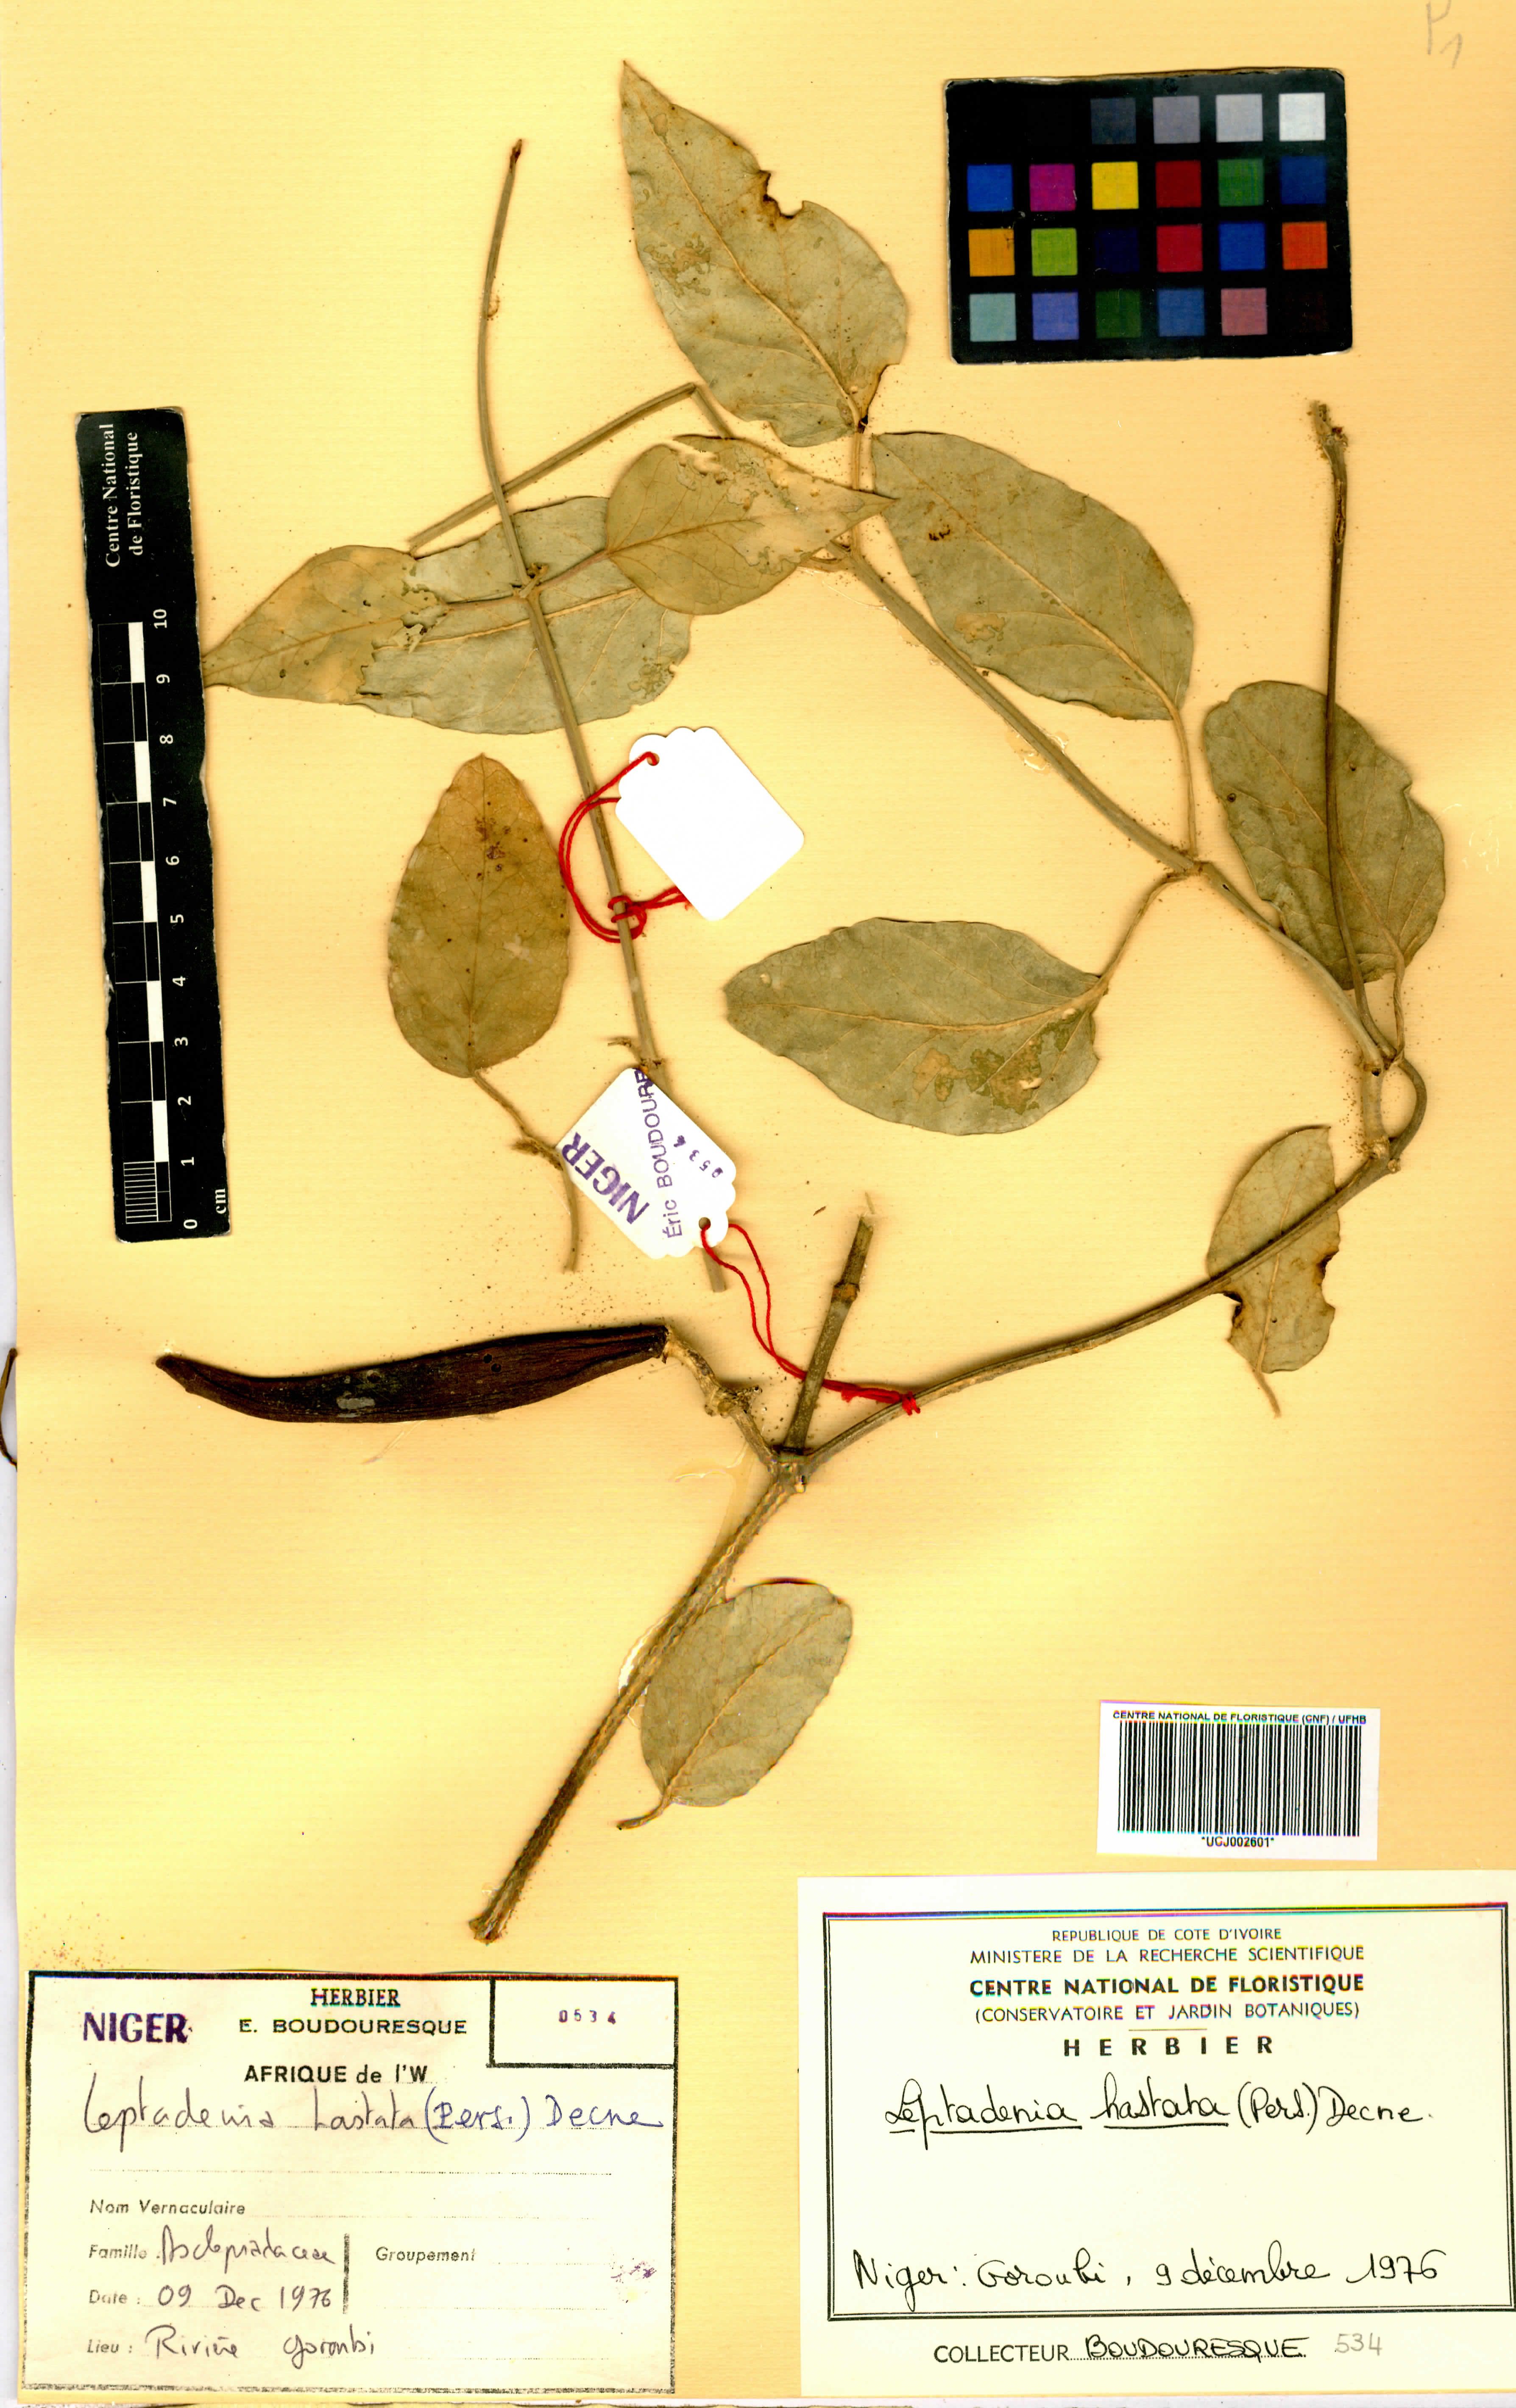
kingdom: Plantae
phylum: Tracheophyta
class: Magnoliopsida
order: Gentianales
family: Apocynaceae
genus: Leptadenia
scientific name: Leptadenia lanceolata
